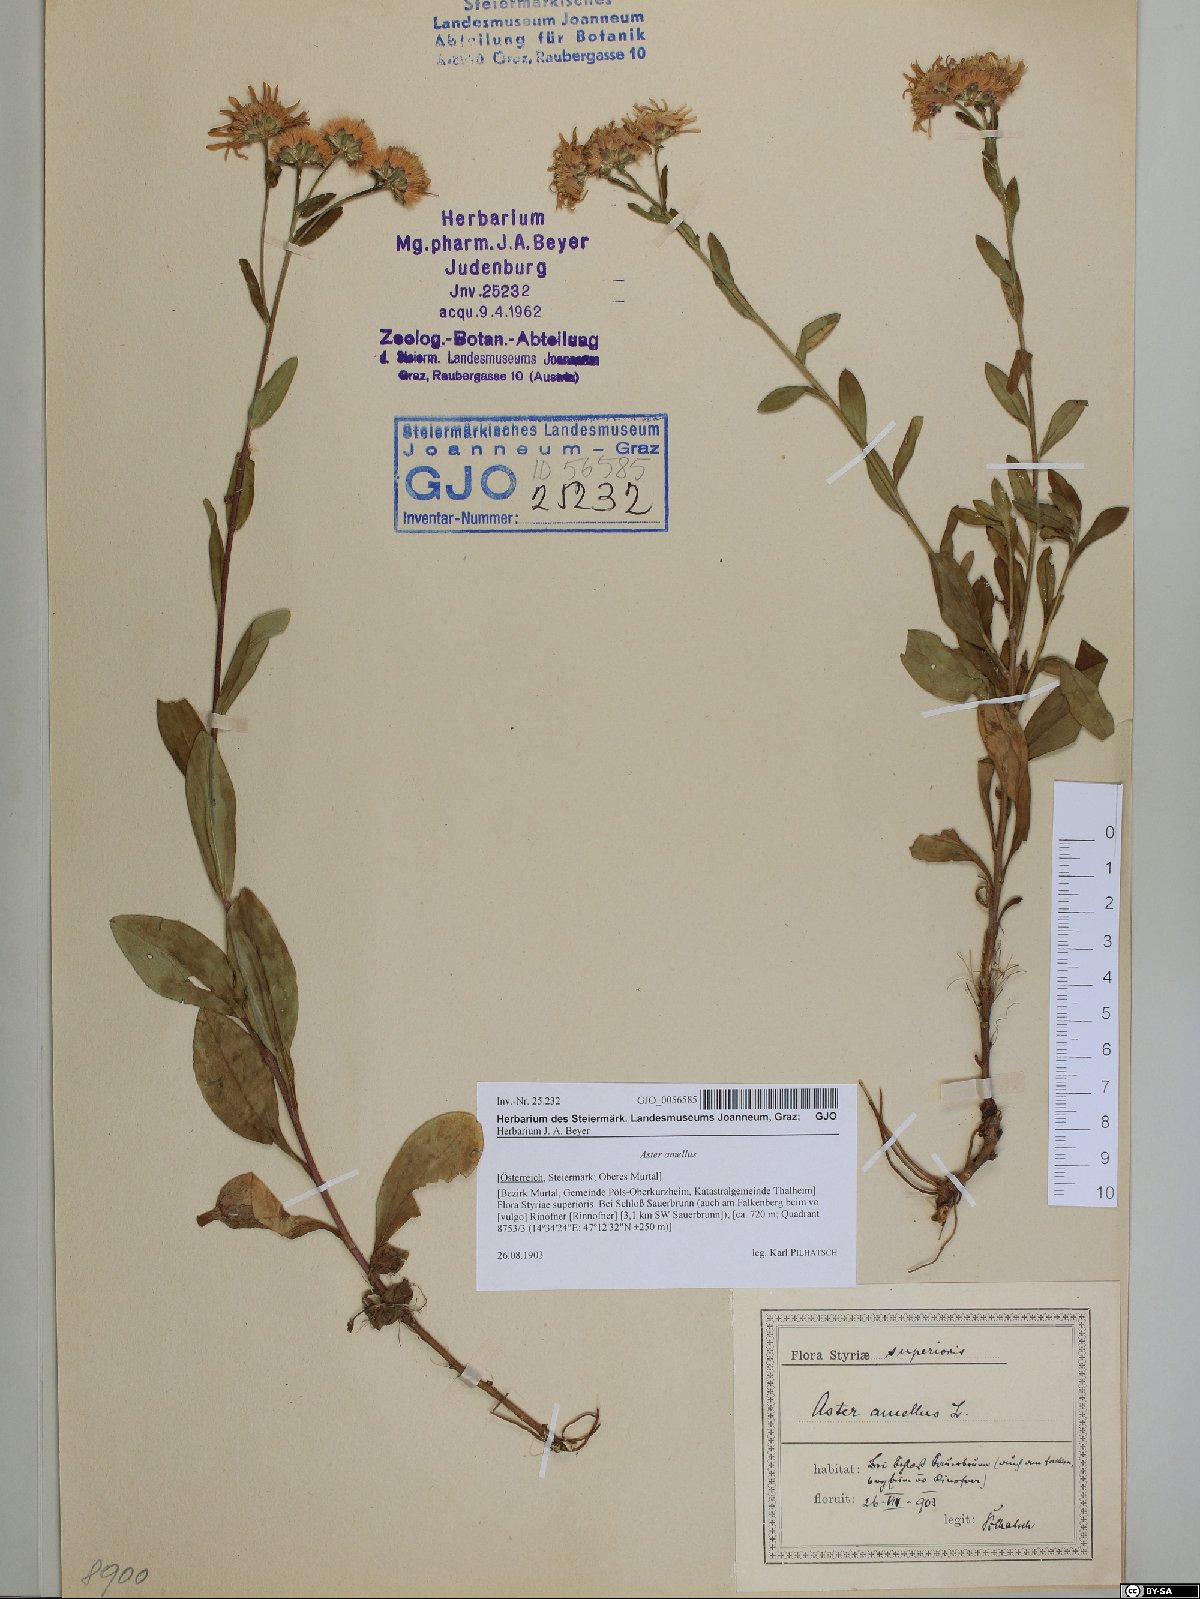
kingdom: Plantae
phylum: Tracheophyta
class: Magnoliopsida
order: Asterales
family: Asteraceae
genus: Aster
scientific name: Aster amellus
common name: European michaelmas daisy
